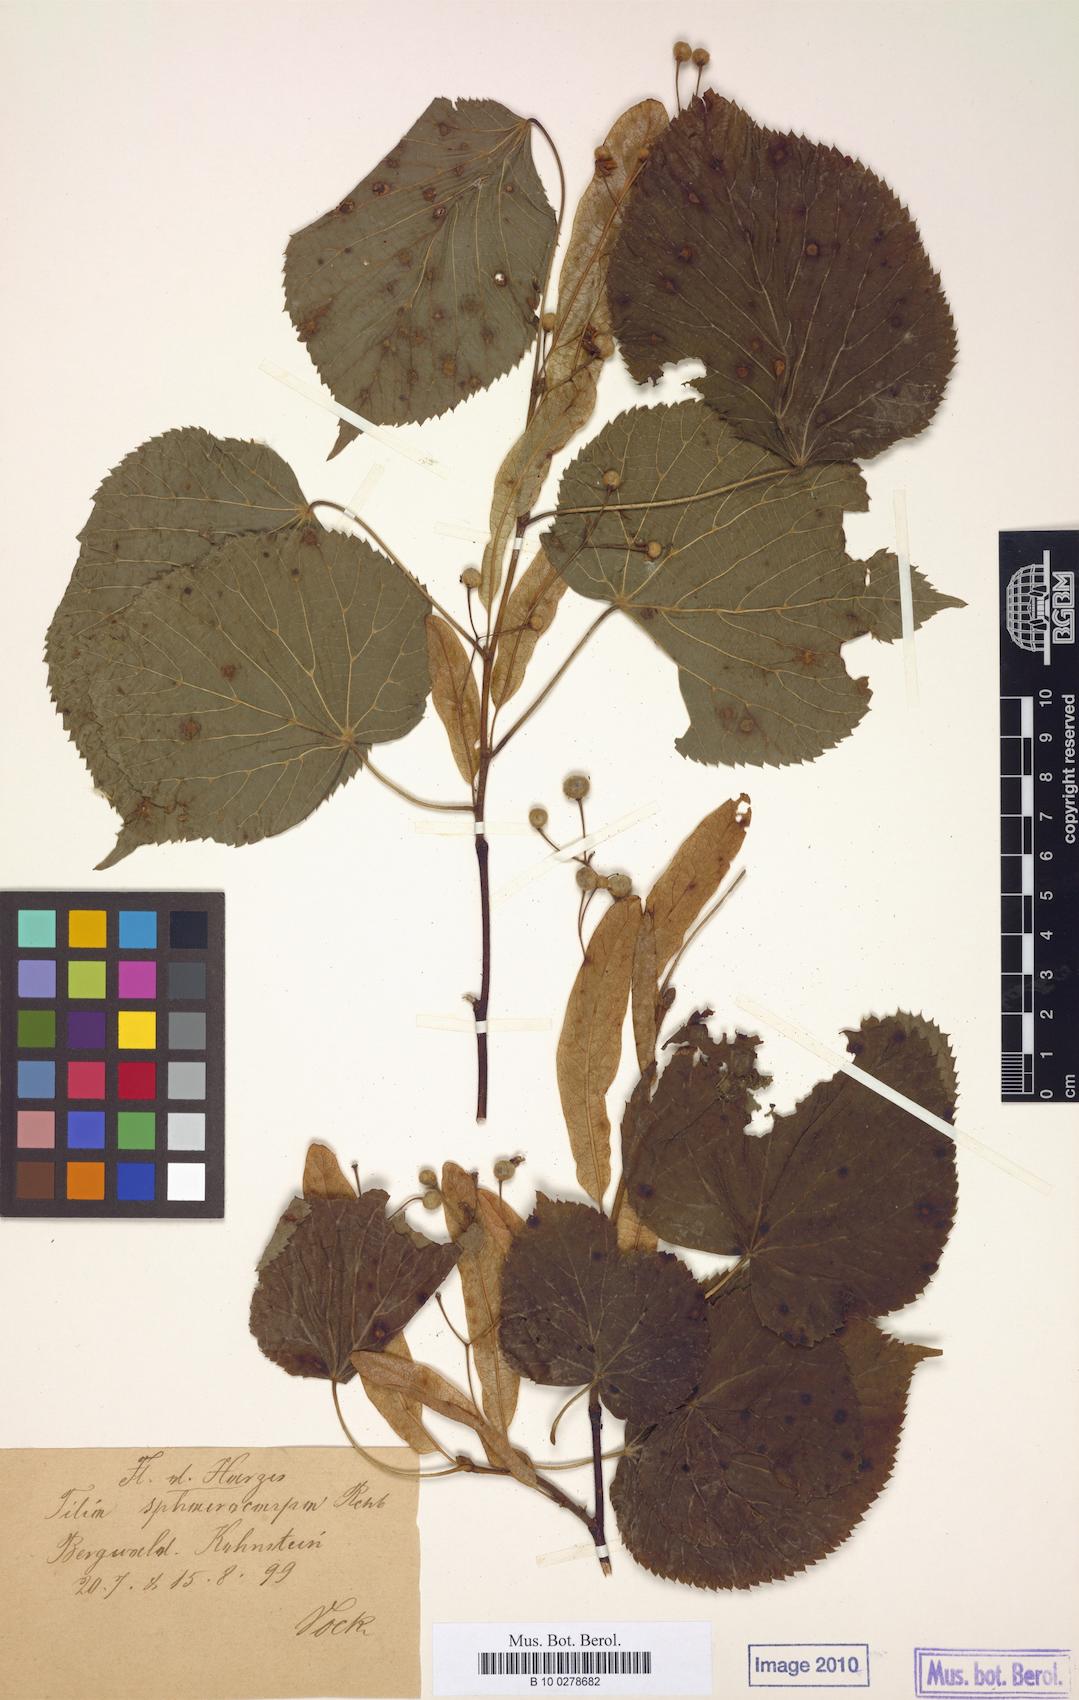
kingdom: Plantae
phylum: Tracheophyta
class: Magnoliopsida
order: Malvales
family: Malvaceae
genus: Tilia
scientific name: Tilia platyphyllos
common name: Large-leaved lime
